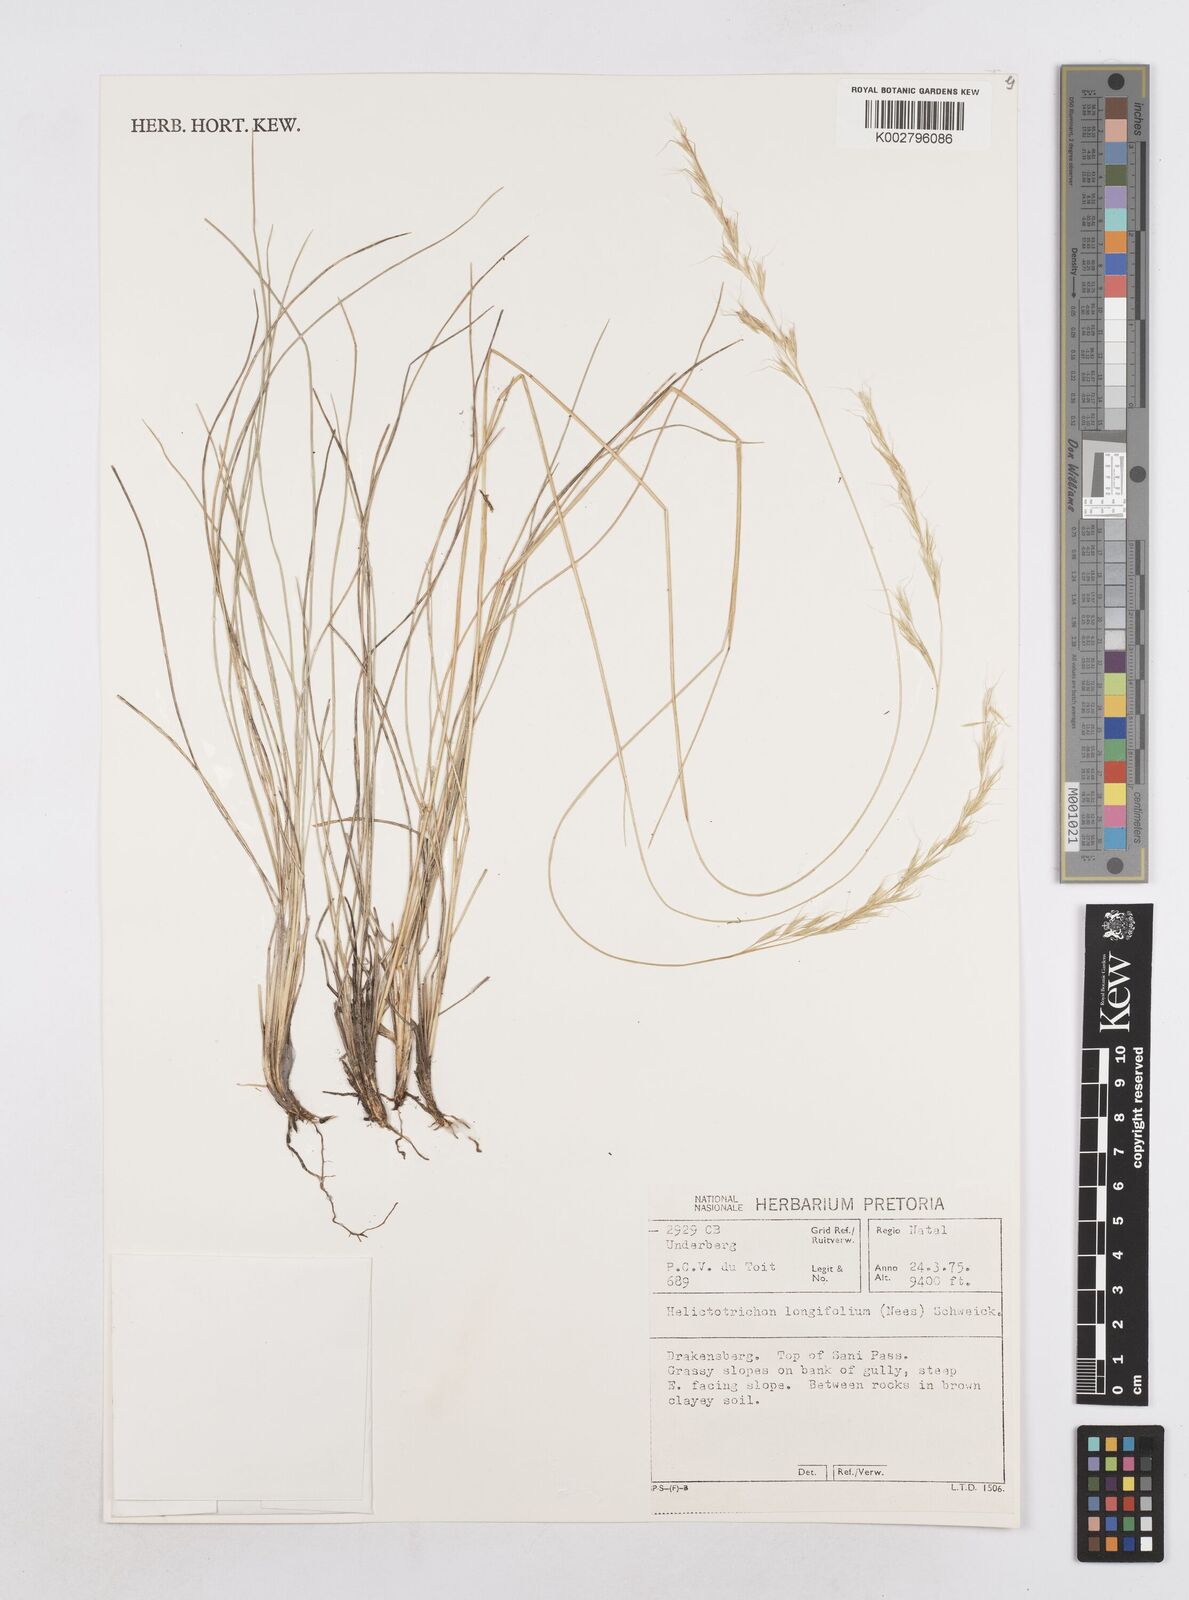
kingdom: Plantae
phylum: Tracheophyta
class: Liliopsida
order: Poales
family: Poaceae
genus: Trisetopsis
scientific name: Trisetopsis longifolia
